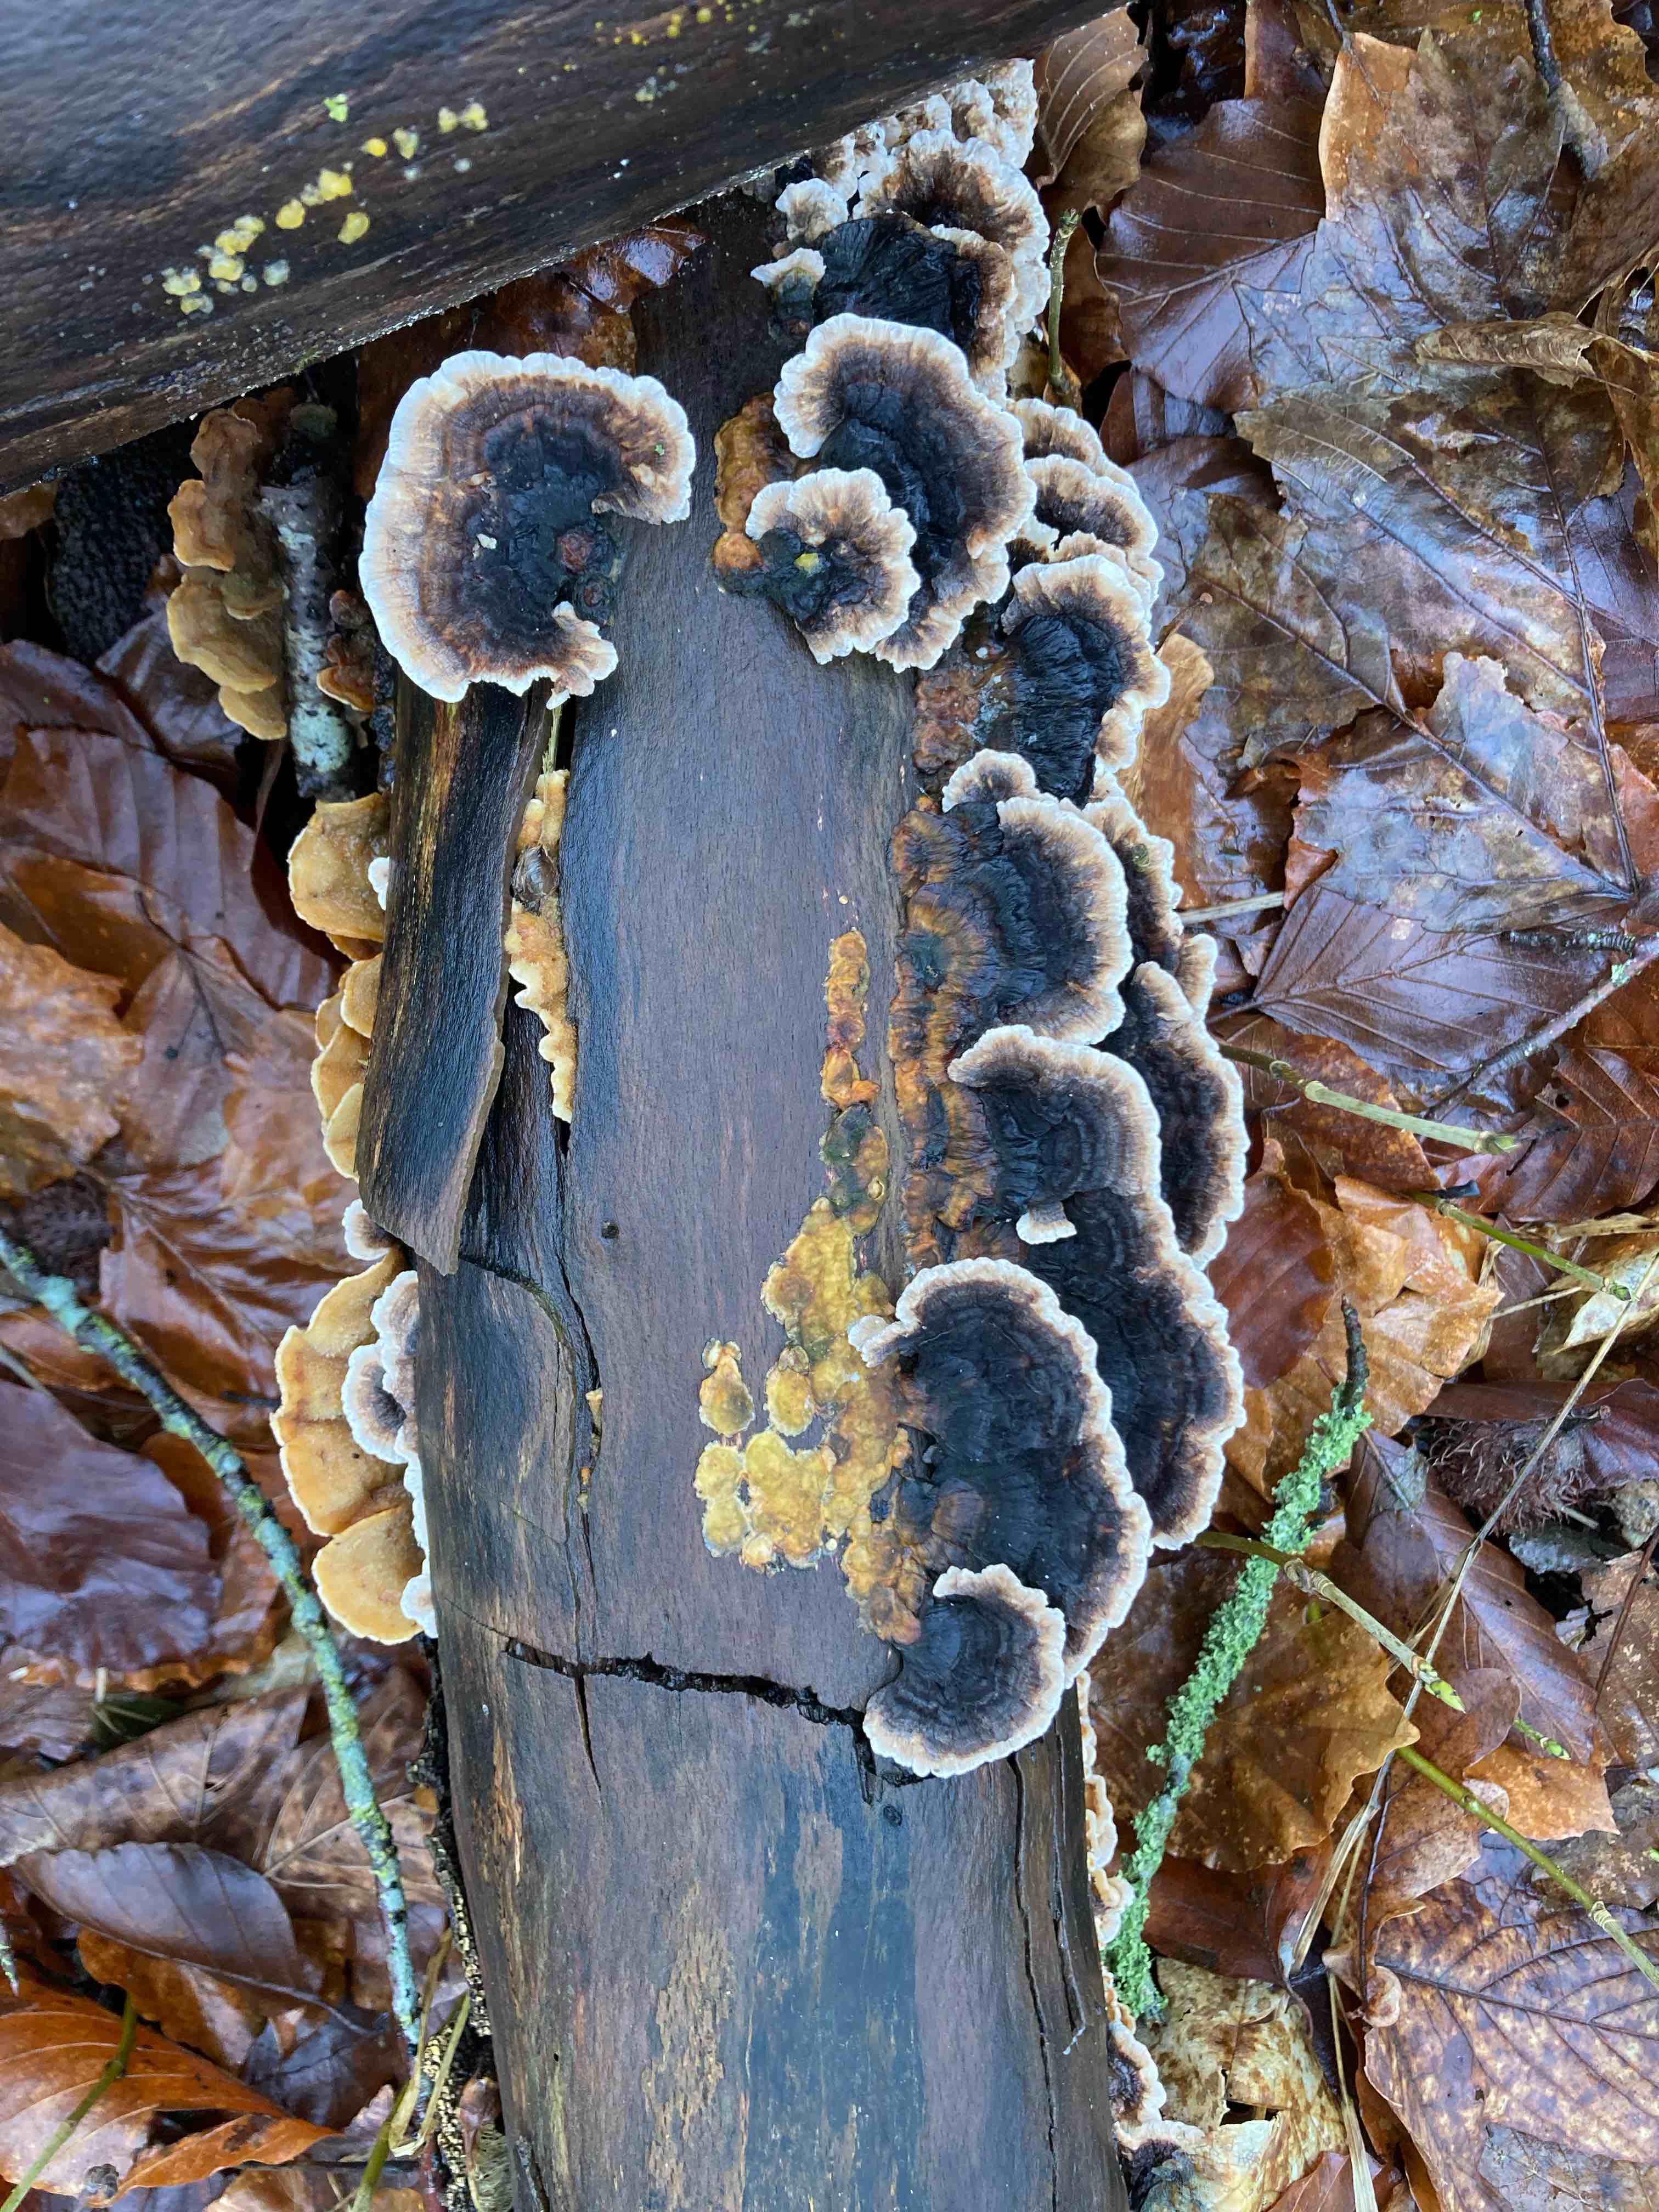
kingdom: Fungi
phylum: Basidiomycota
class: Agaricomycetes
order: Polyporales
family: Polyporaceae
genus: Trametes
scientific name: Trametes versicolor
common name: broget læderporesvamp
